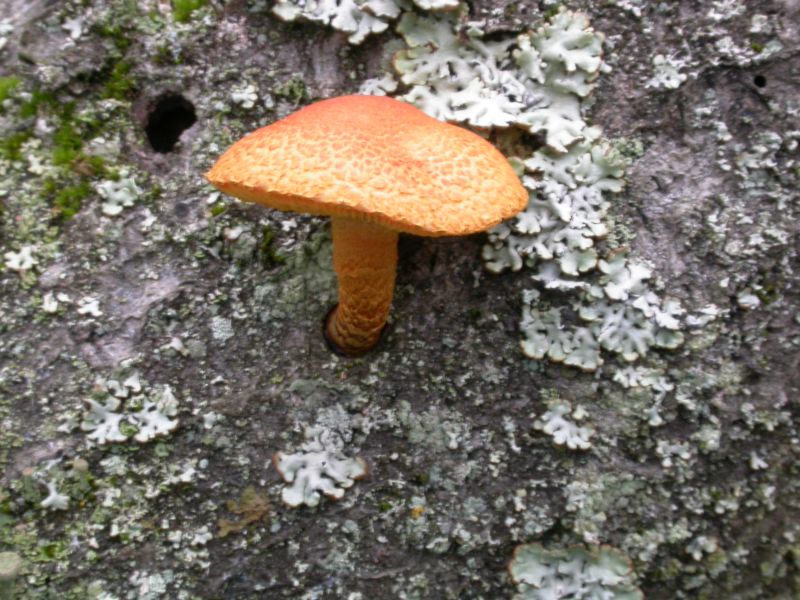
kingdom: Fungi
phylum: Basidiomycota
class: Agaricomycetes
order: Agaricales
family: Strophariaceae
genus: Pholiota
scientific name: Pholiota tuberculosa
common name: finskællet skælhat
